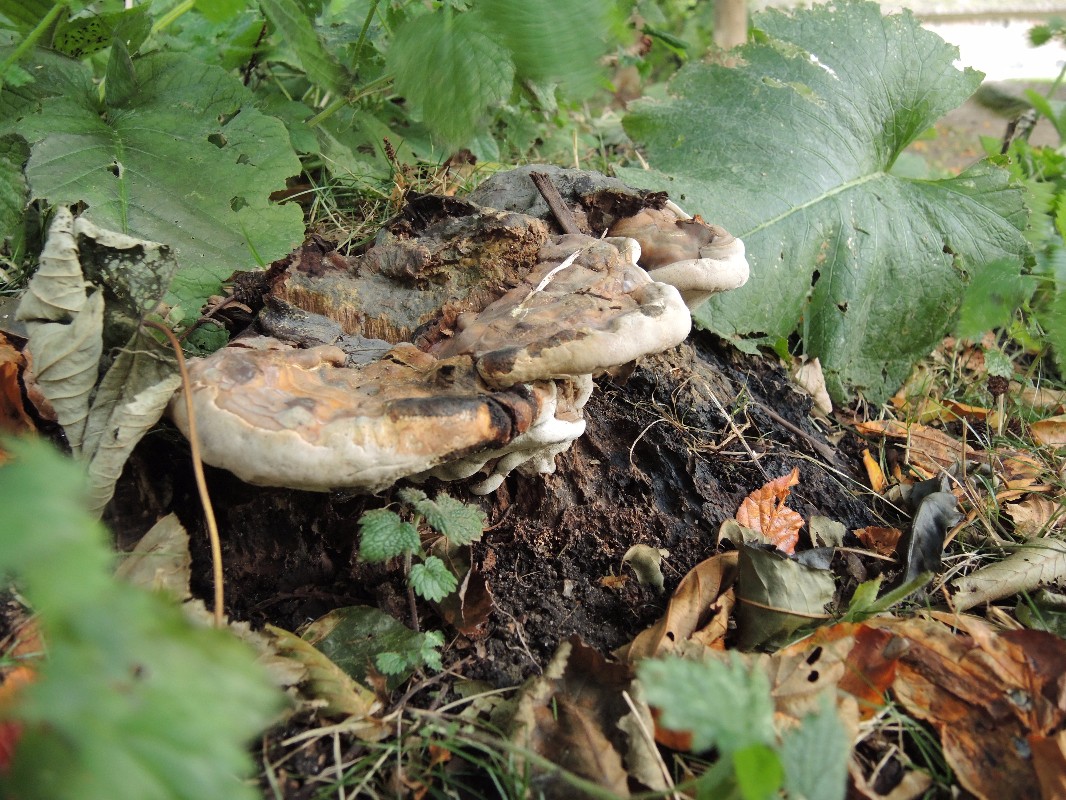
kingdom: Fungi
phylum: Basidiomycota
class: Agaricomycetes
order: Polyporales
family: Polyporaceae
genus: Ganoderma
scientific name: Ganoderma pfeifferi
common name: kobberrød lakporesvamp
